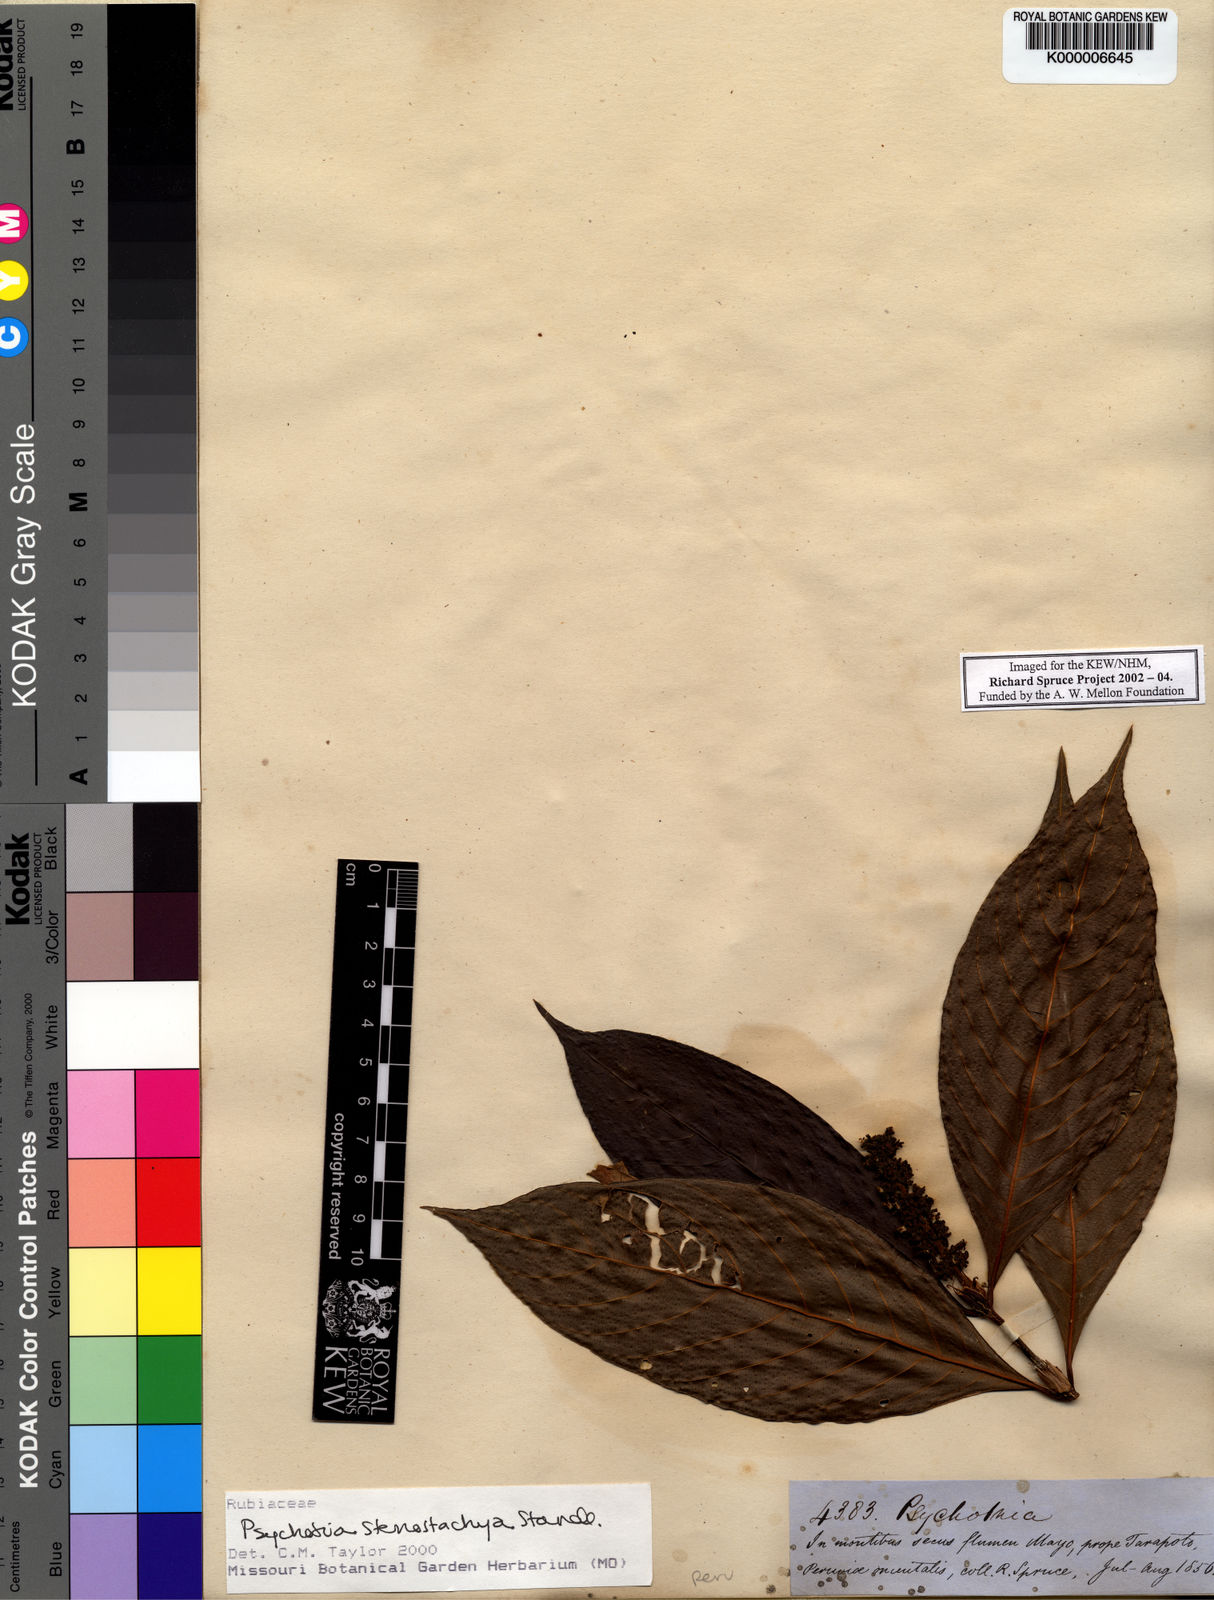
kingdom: Plantae
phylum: Tracheophyta
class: Magnoliopsida
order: Gentianales
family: Rubiaceae
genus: Palicourea
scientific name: Palicourea stenostachya
